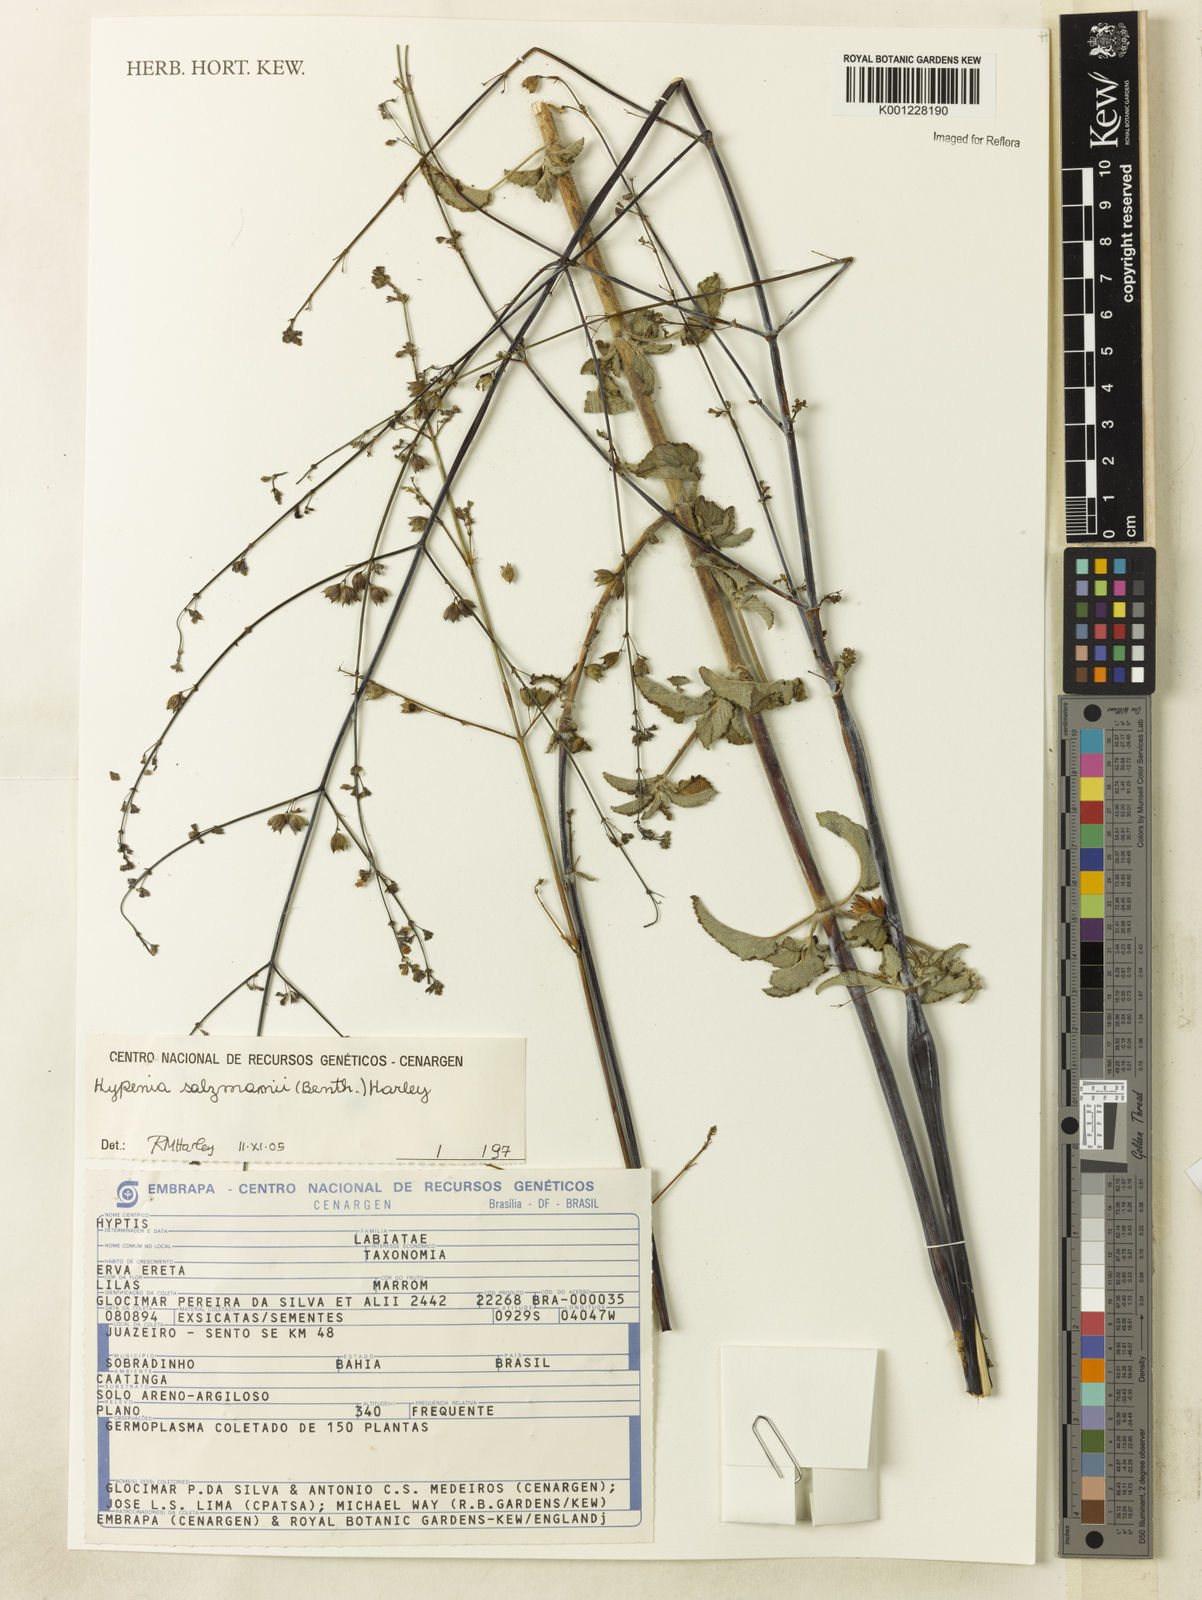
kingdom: Plantae
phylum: Tracheophyta
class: Magnoliopsida
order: Lamiales
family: Lamiaceae
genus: Hypenia
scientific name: Hypenia salzmannii
